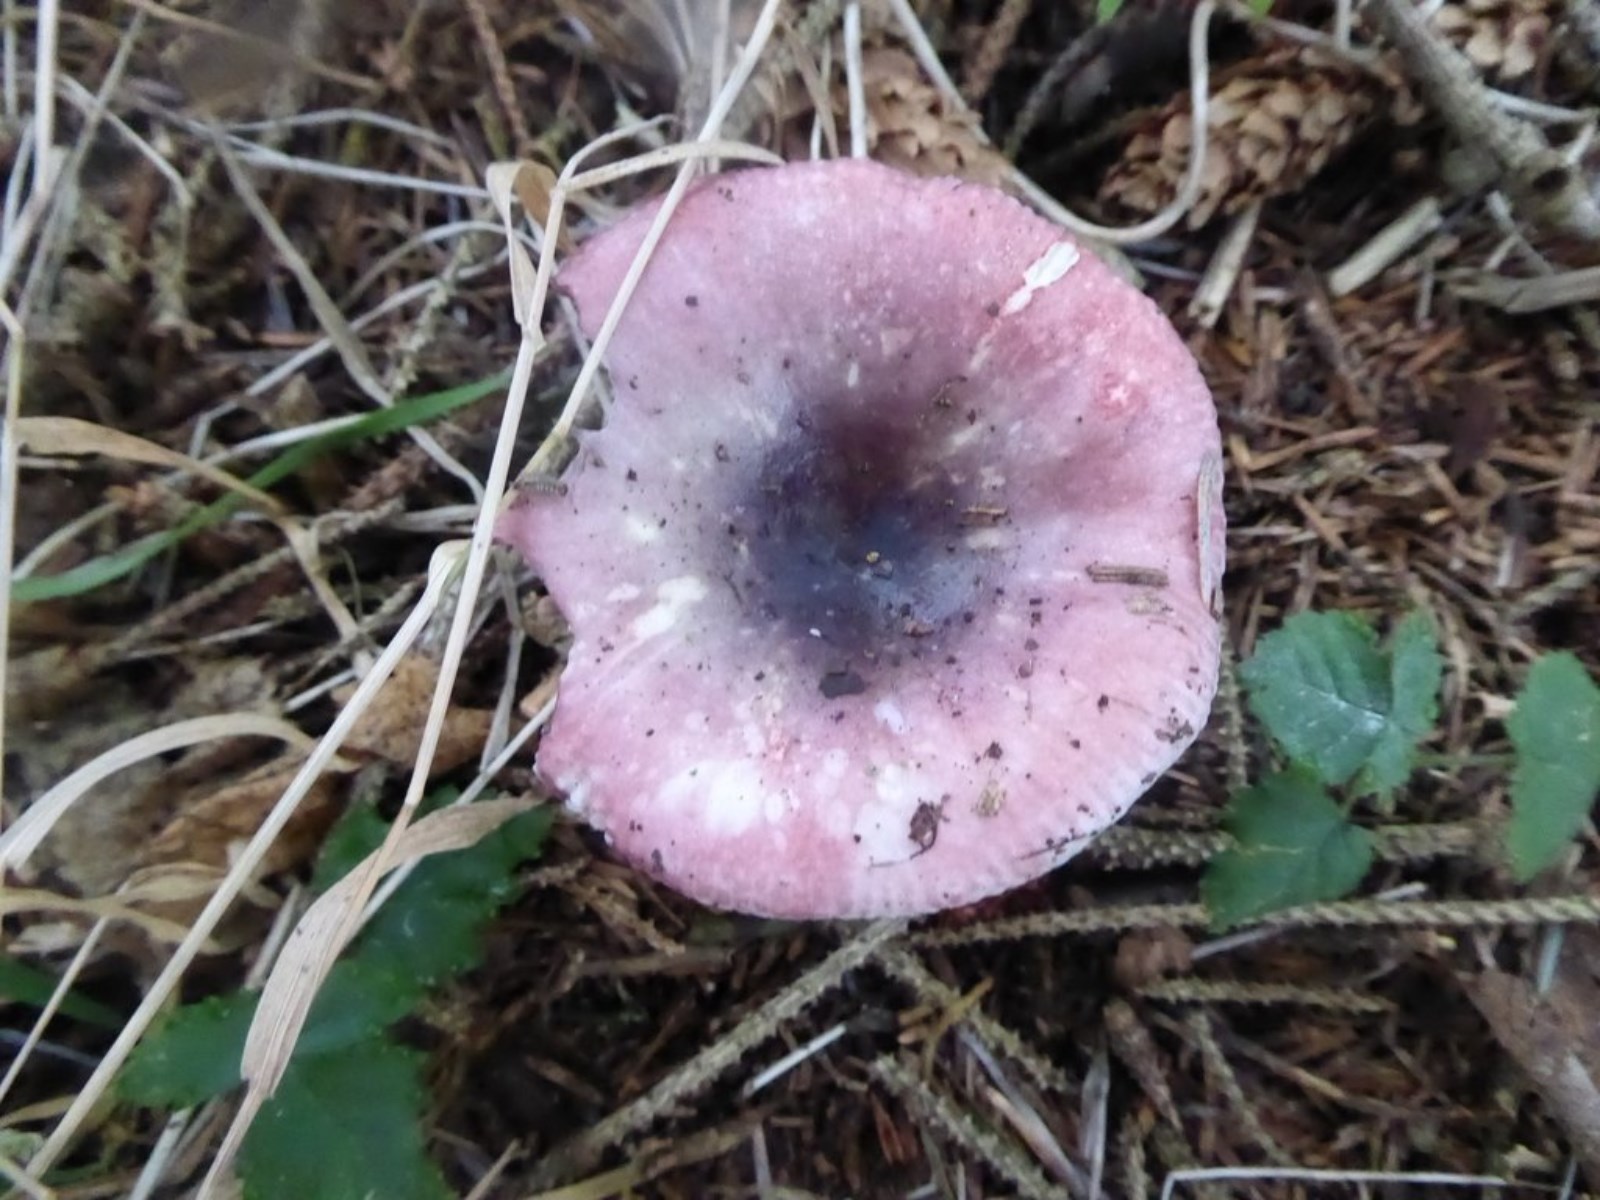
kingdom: Fungi
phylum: Basidiomycota
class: Agaricomycetes
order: Russulales
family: Russulaceae
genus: Russula
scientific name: Russula fragilis
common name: savbladet skørhat
